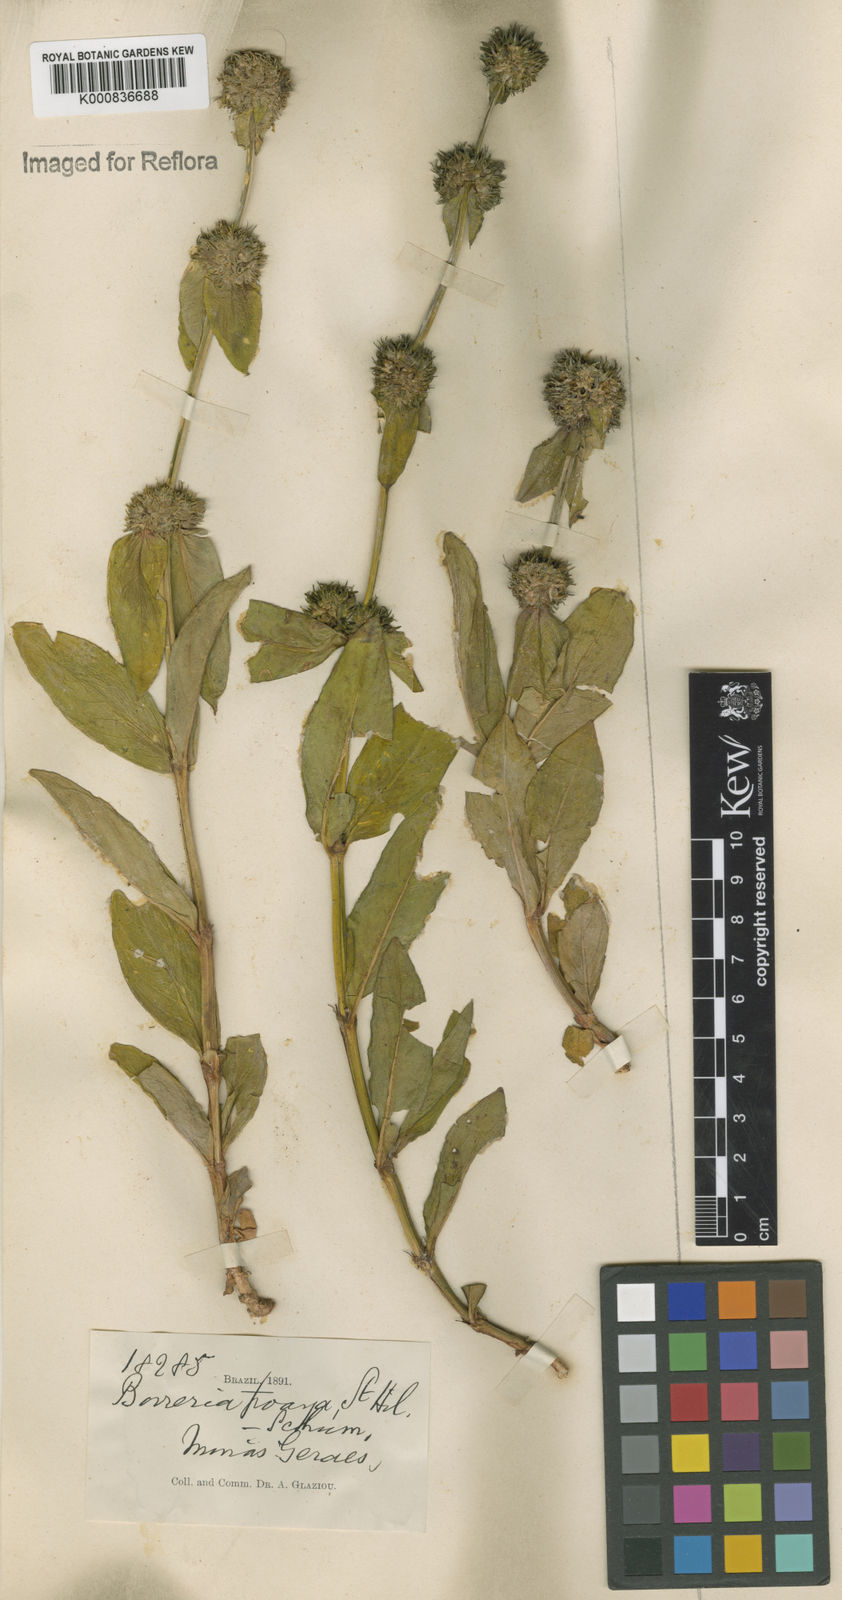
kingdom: Plantae
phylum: Tracheophyta
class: Magnoliopsida
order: Gentianales
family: Rubiaceae
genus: Spermacoce
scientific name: Spermacoce poaya
